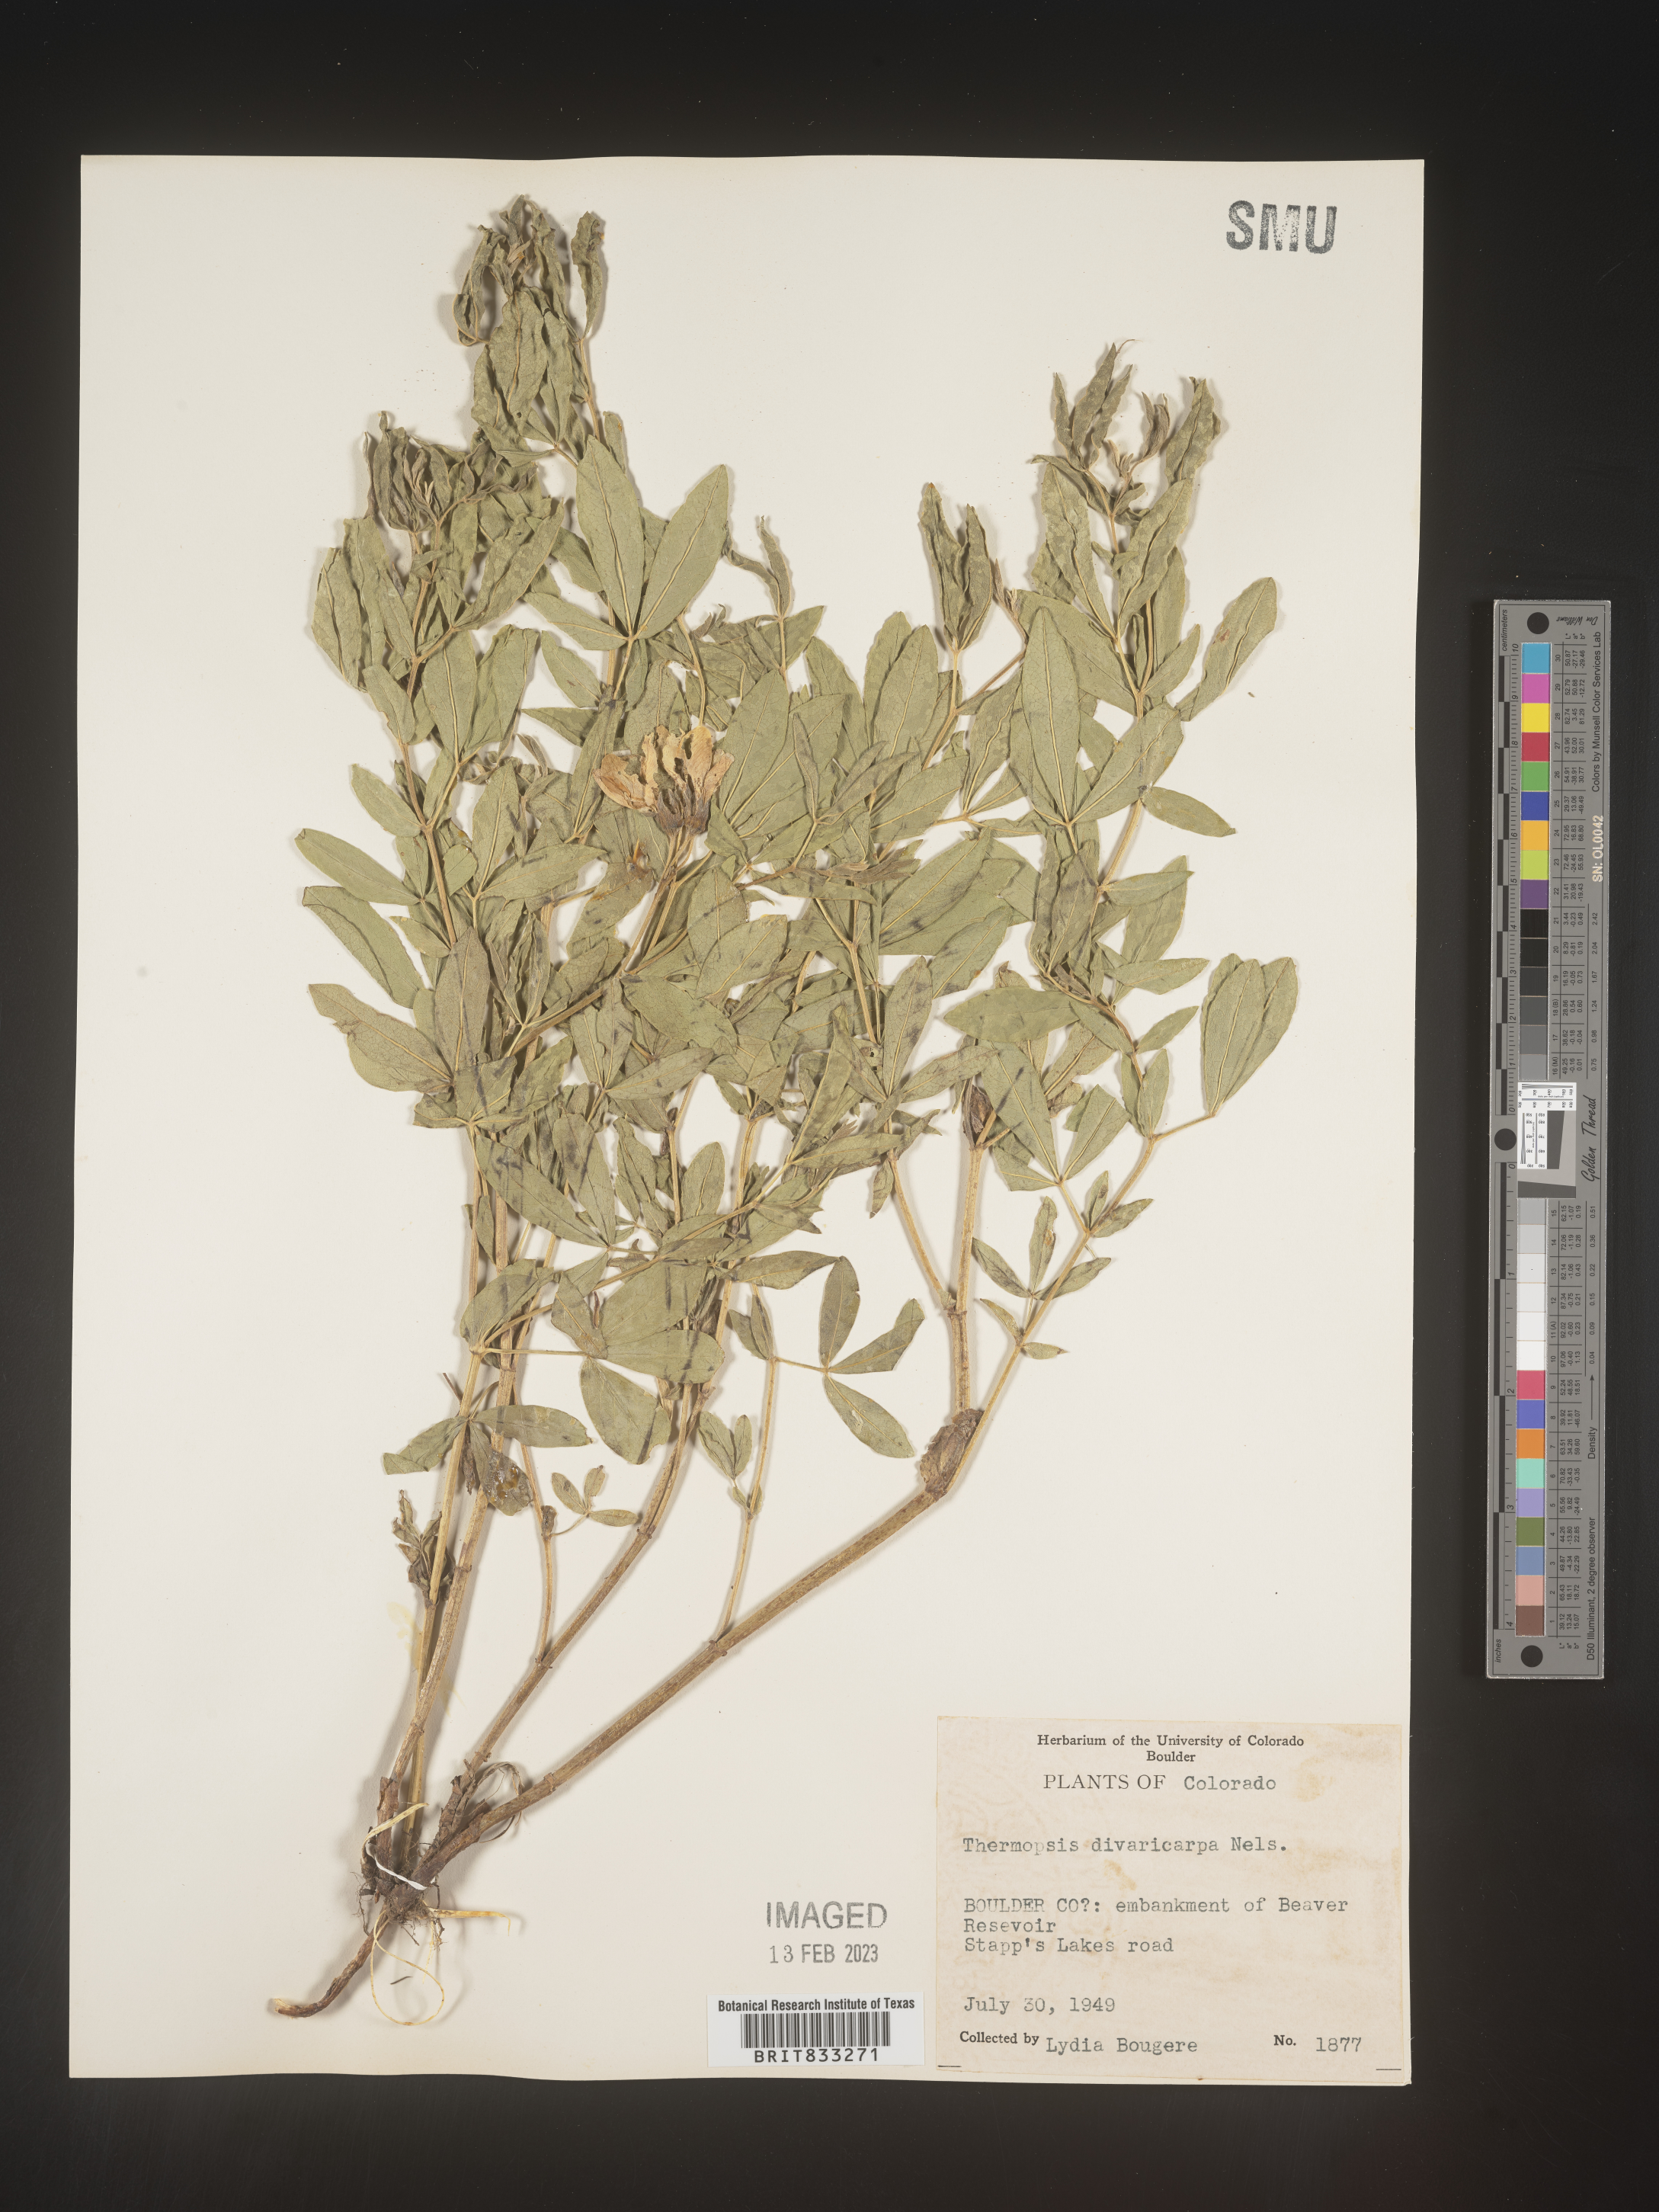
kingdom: Plantae
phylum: Tracheophyta
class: Magnoliopsida
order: Fabales
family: Fabaceae
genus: Thermopsis
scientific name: Thermopsis rhombifolia
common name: Circle-pod-pea
